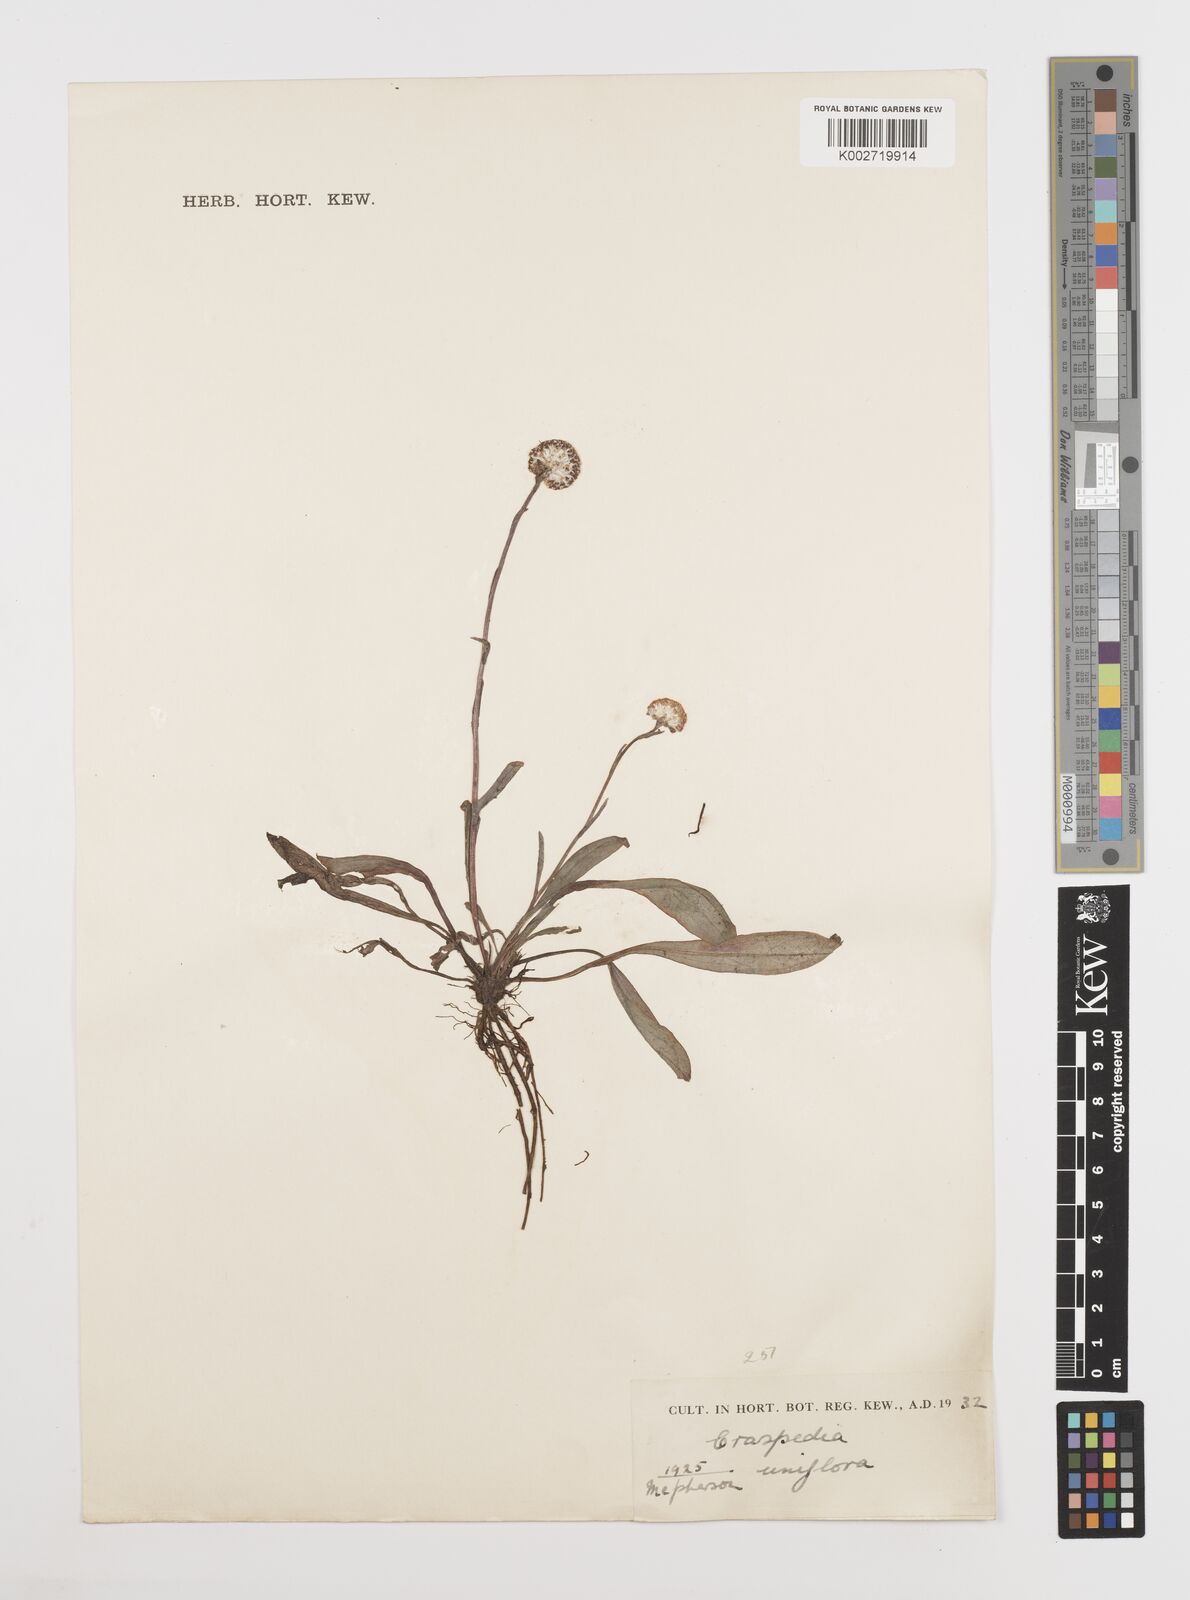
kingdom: Plantae
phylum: Tracheophyta
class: Magnoliopsida
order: Asterales
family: Asteraceae
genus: Craspedia
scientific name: Craspedia uniflora
